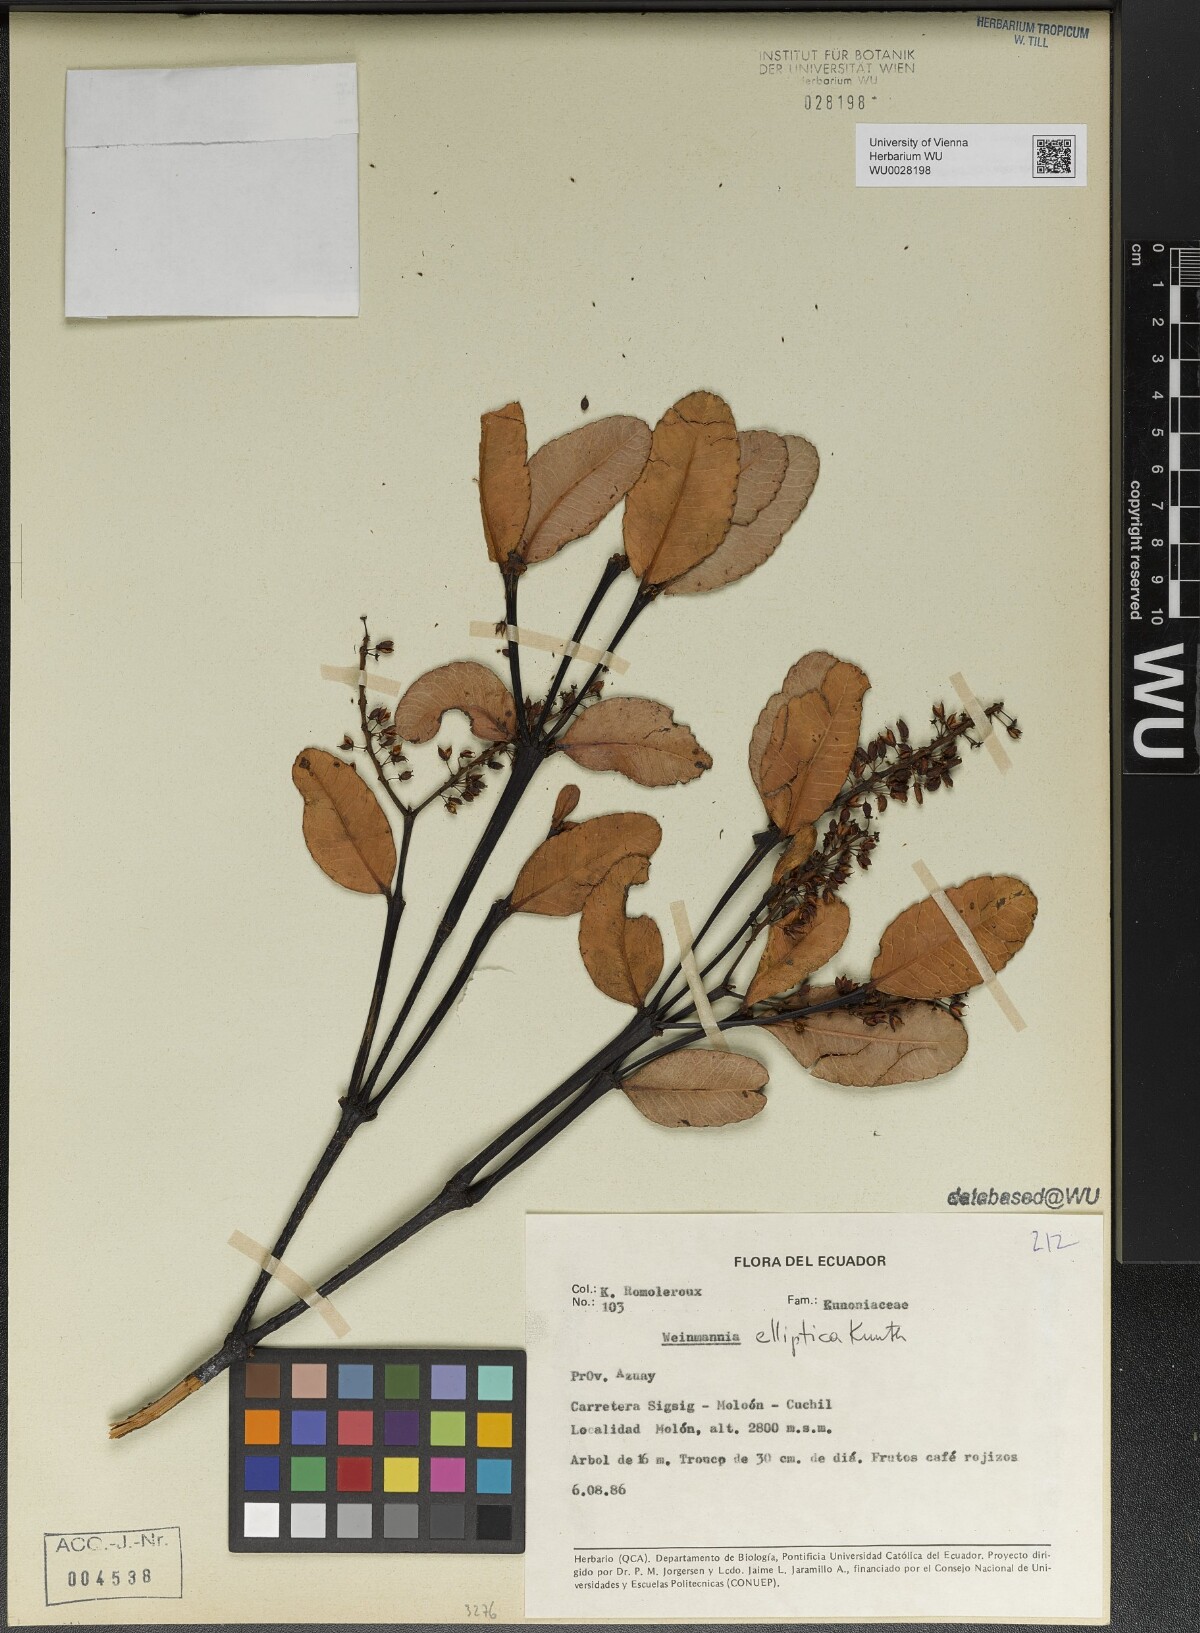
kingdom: Plantae
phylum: Tracheophyta
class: Magnoliopsida
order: Oxalidales
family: Cunoniaceae
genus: Weinmannia
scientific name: Weinmannia elliptica
